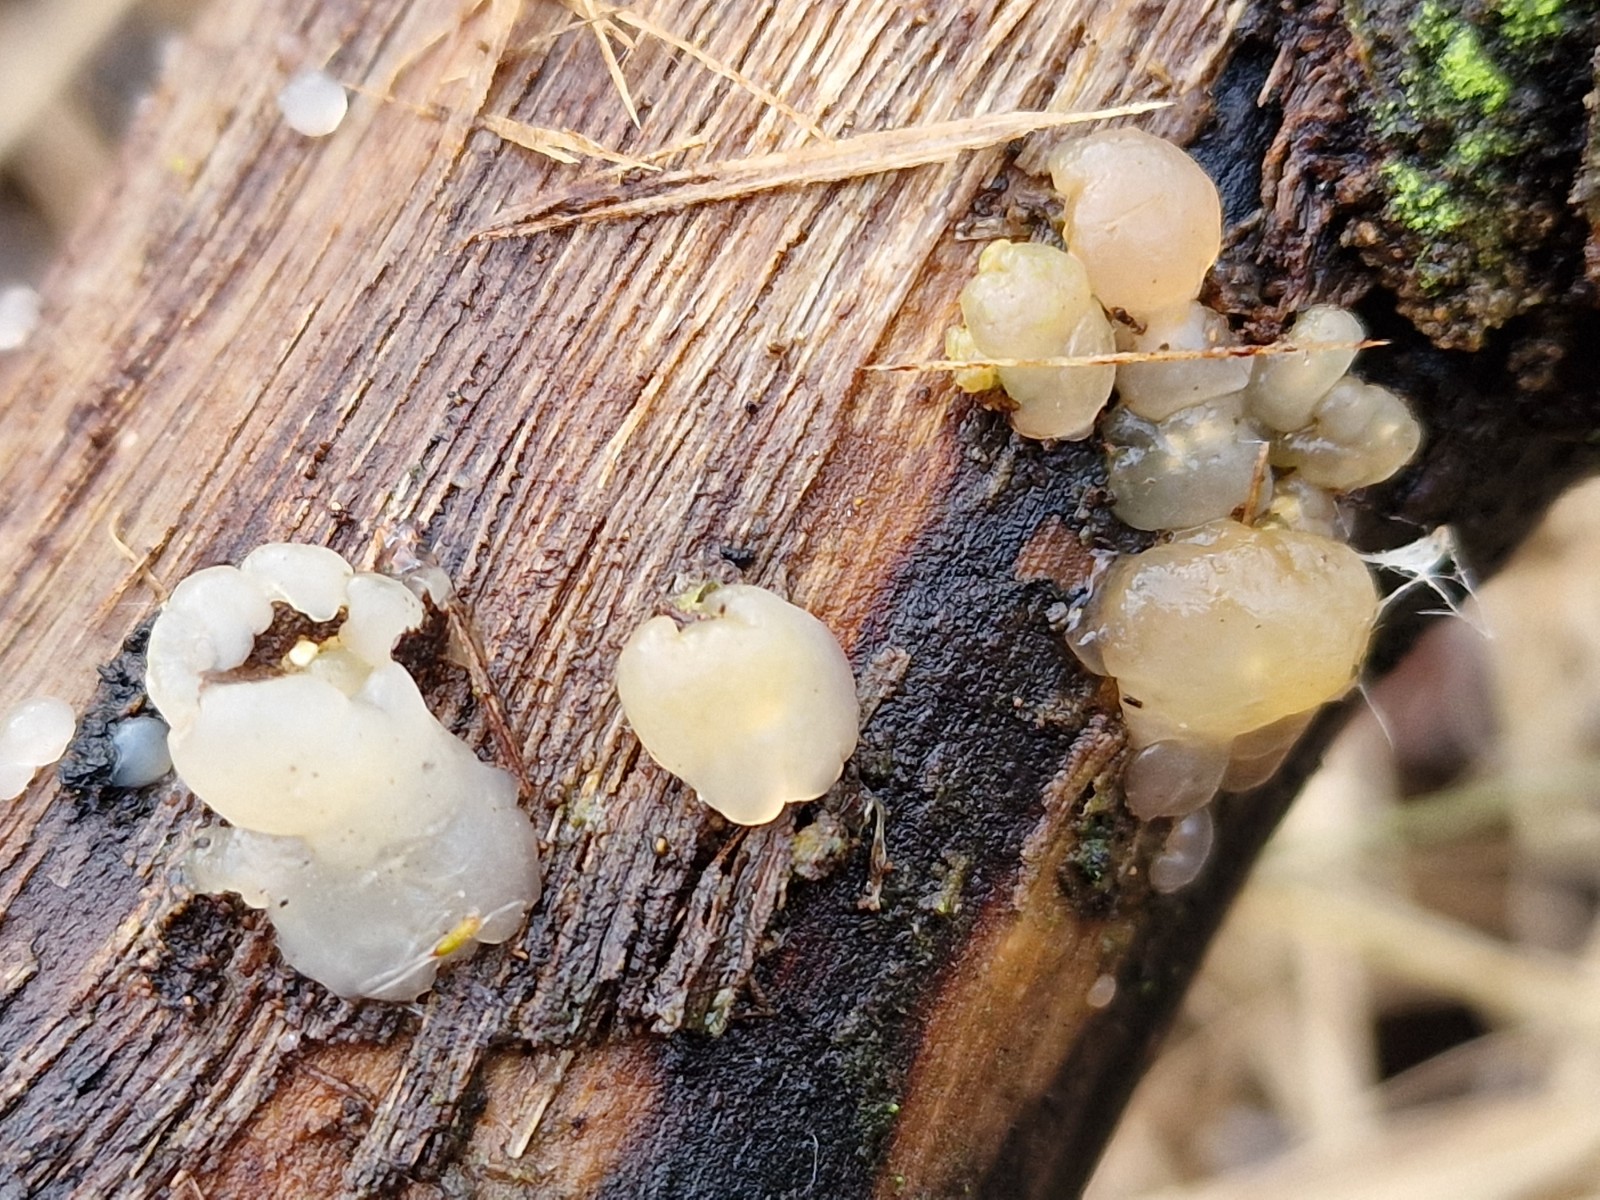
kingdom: Fungi
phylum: Basidiomycota
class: Agaricomycetes
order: Auriculariales
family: Hyaloriaceae
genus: Myxarium
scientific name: Myxarium nucleatum
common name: klar bævretop
